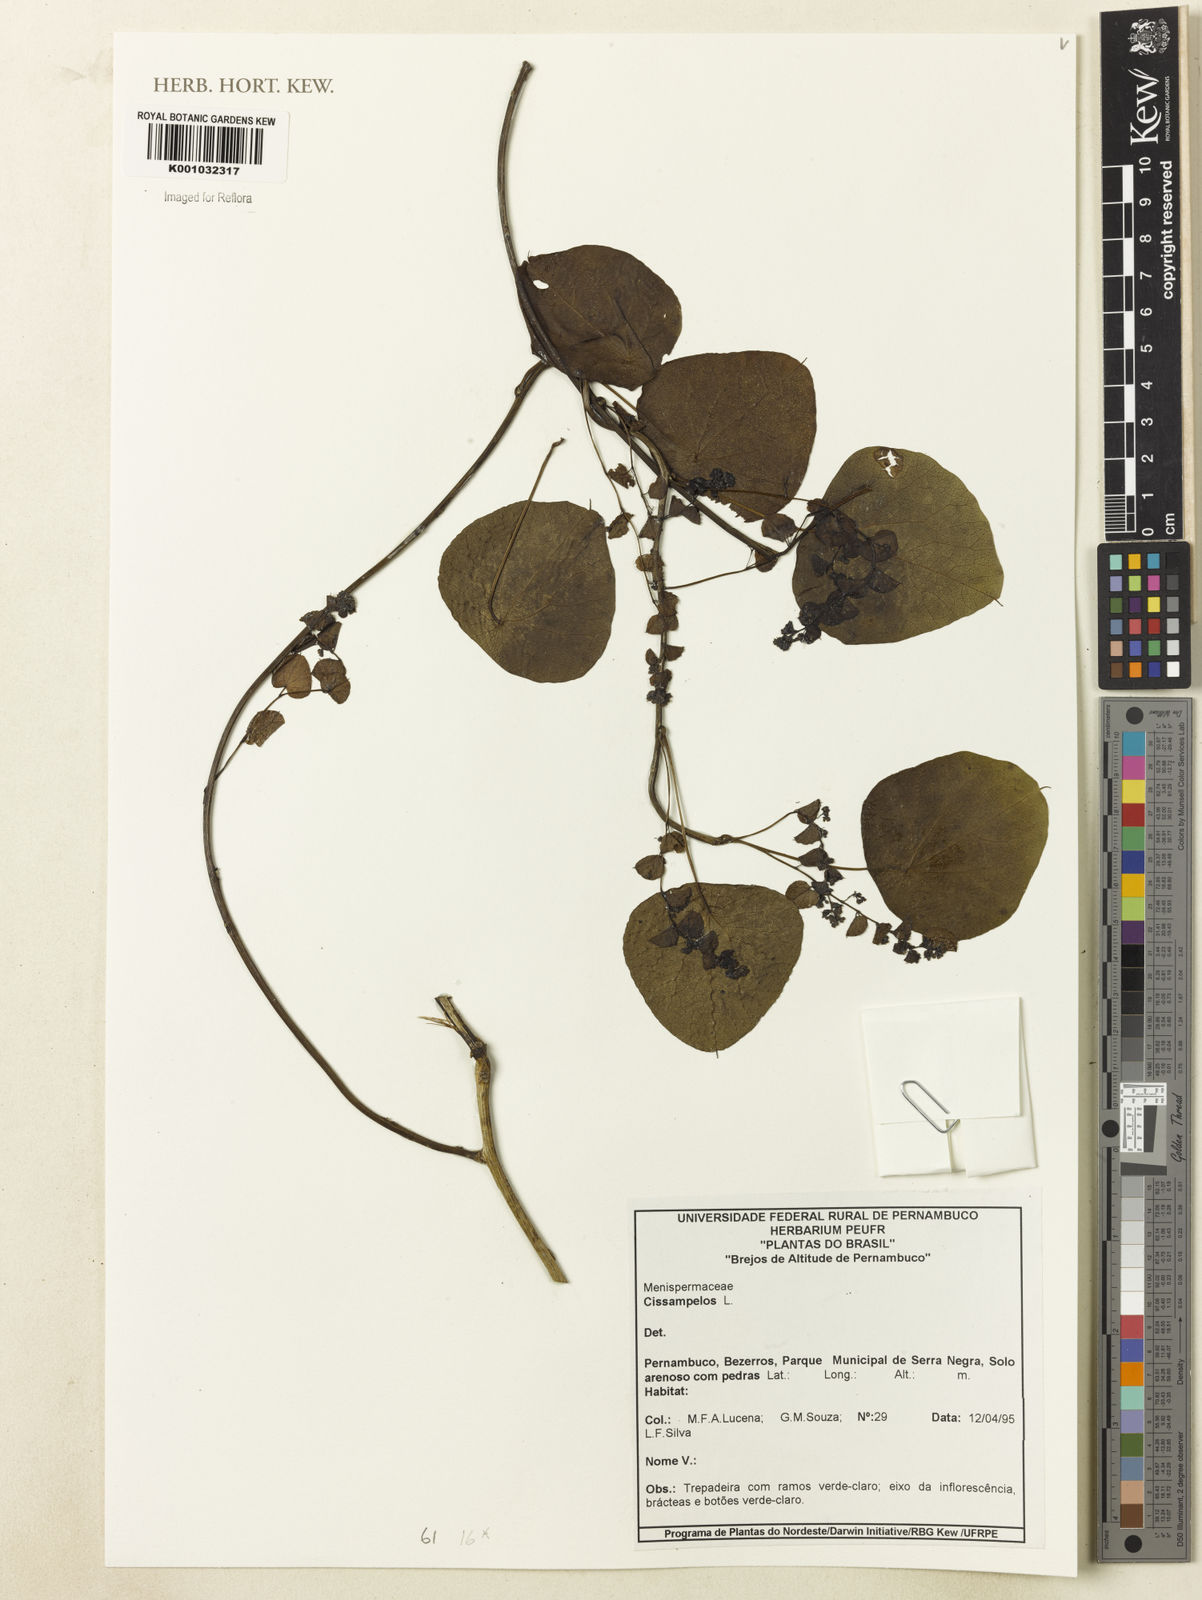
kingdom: Plantae
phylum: Tracheophyta
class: Magnoliopsida
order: Ranunculales
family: Menispermaceae
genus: Cissampelos
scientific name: Cissampelos
